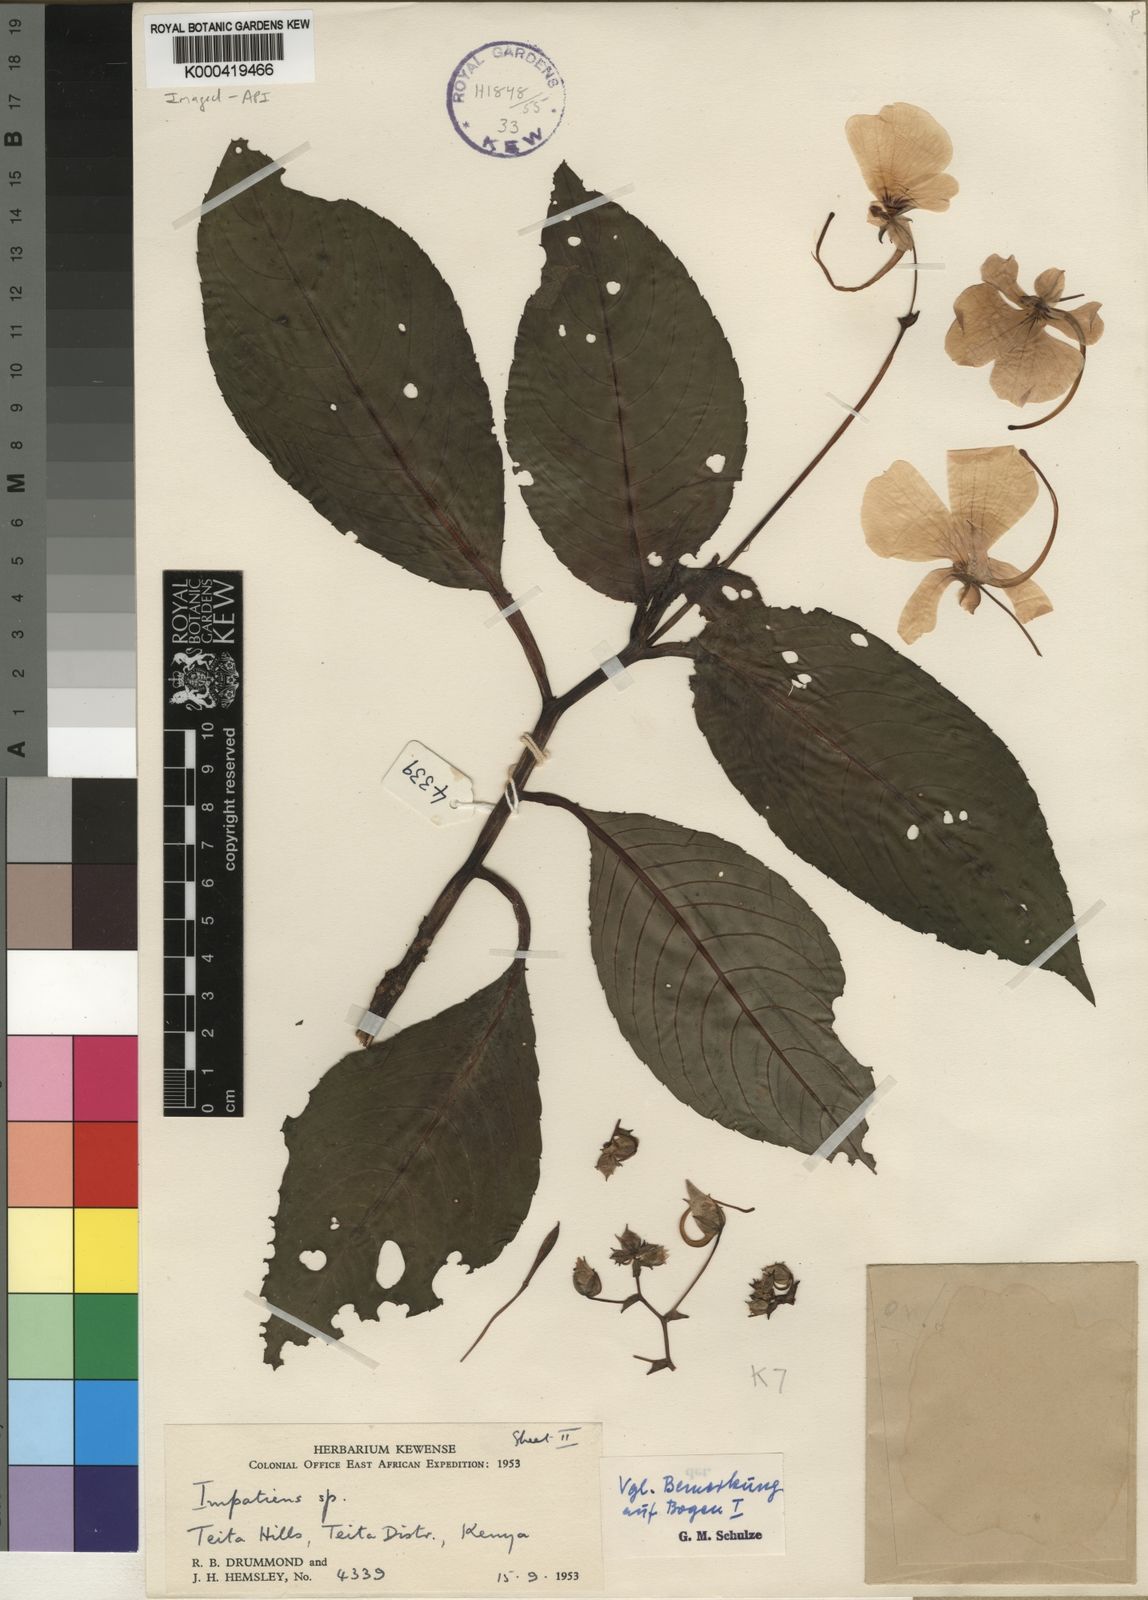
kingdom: Plantae
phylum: Tracheophyta
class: Magnoliopsida
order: Ericales
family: Balsaminaceae
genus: Impatiens
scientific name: Impatiens teitensis
